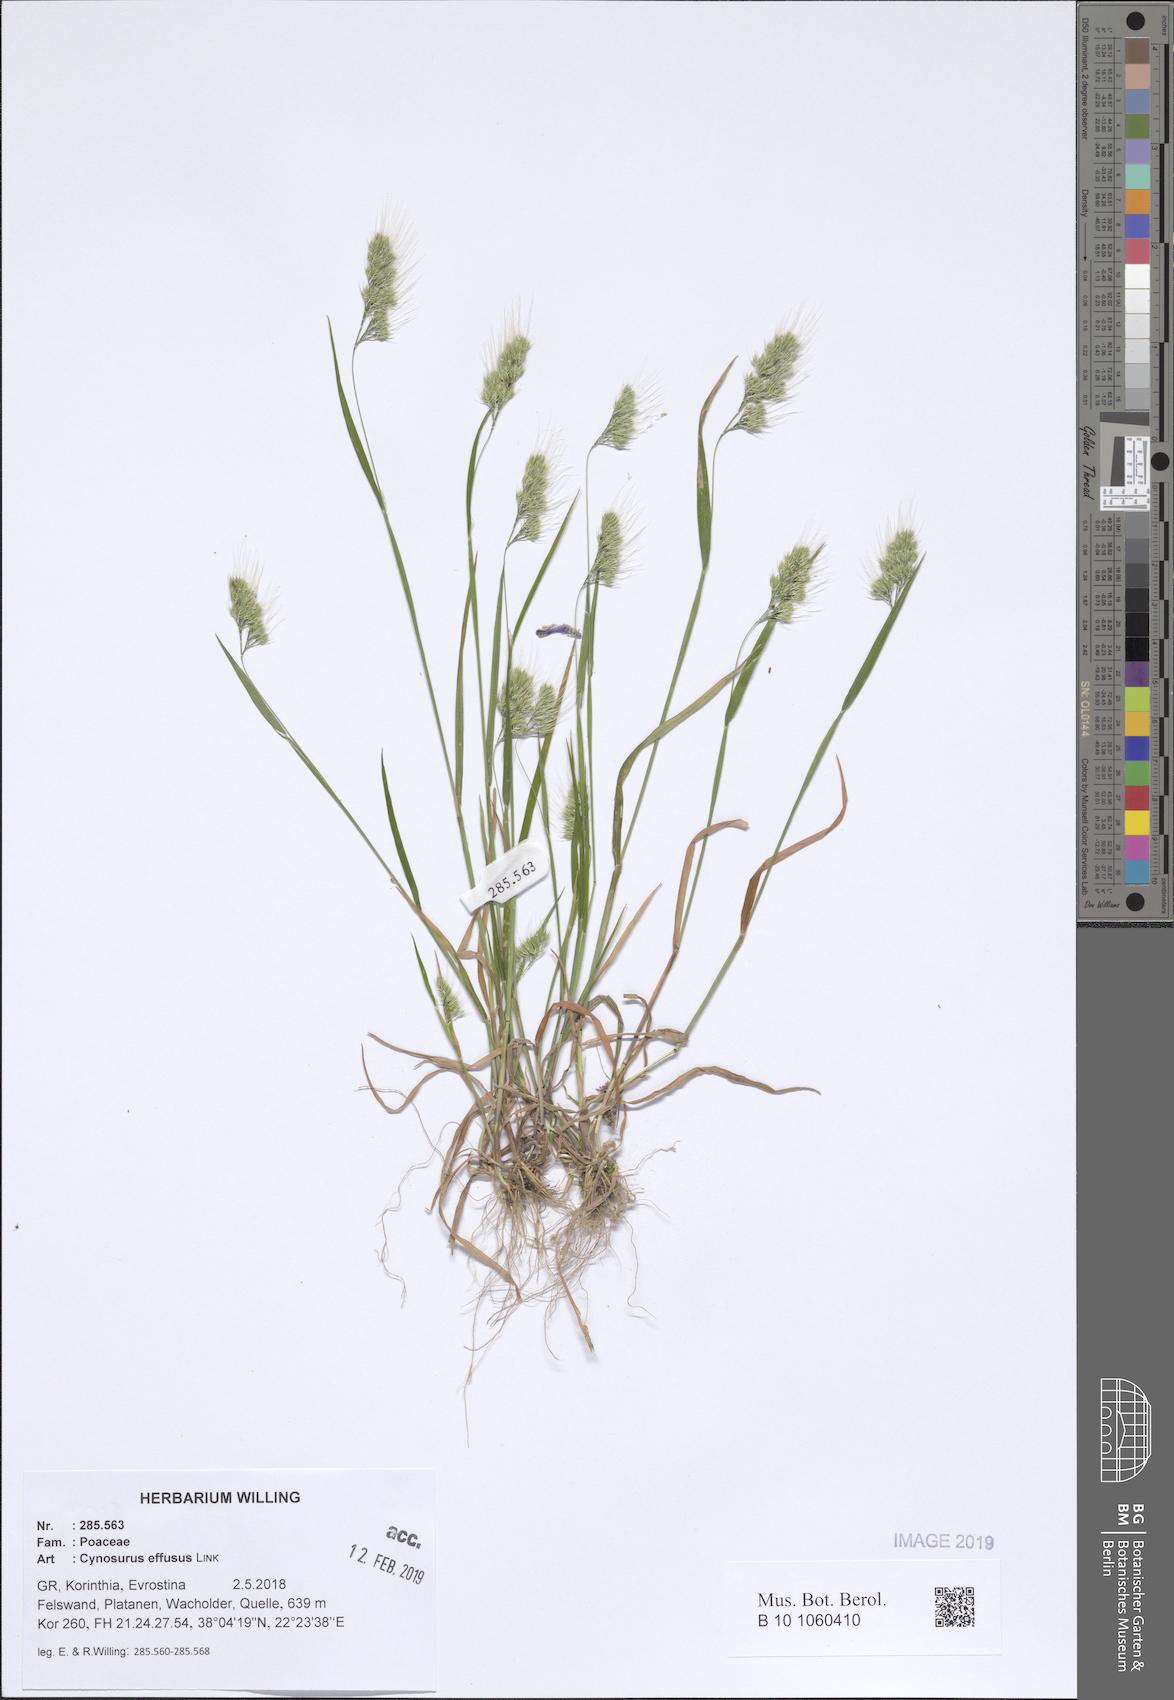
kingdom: Plantae
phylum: Tracheophyta
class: Liliopsida
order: Poales
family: Poaceae
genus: Cynosurus
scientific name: Cynosurus effusus
